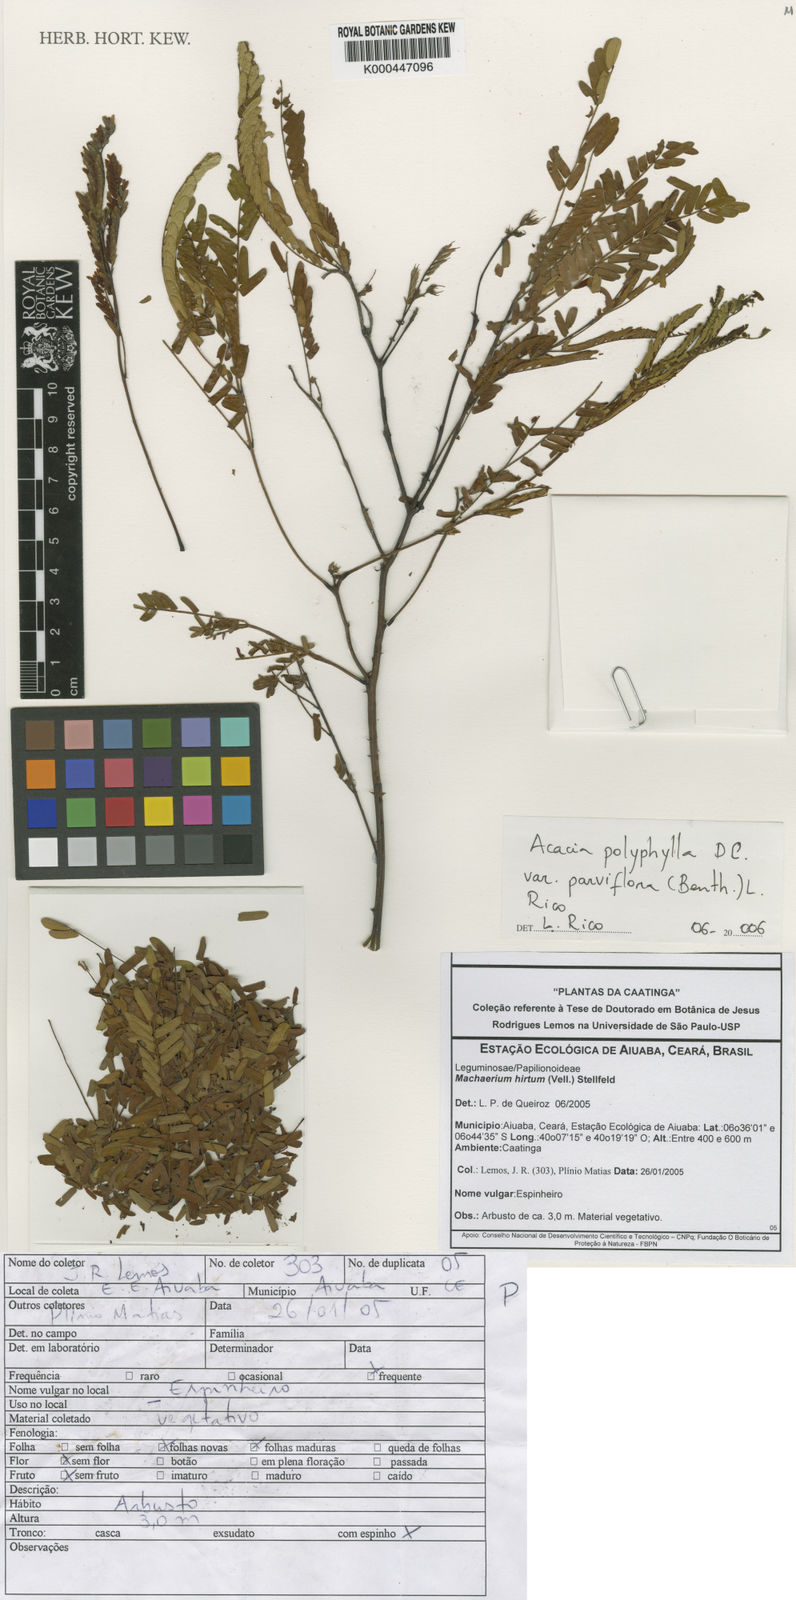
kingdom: Plantae
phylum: Tracheophyta
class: Magnoliopsida
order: Fabales
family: Fabaceae
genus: Senegalia
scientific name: Senegalia polyphylla
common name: White-tamarind
